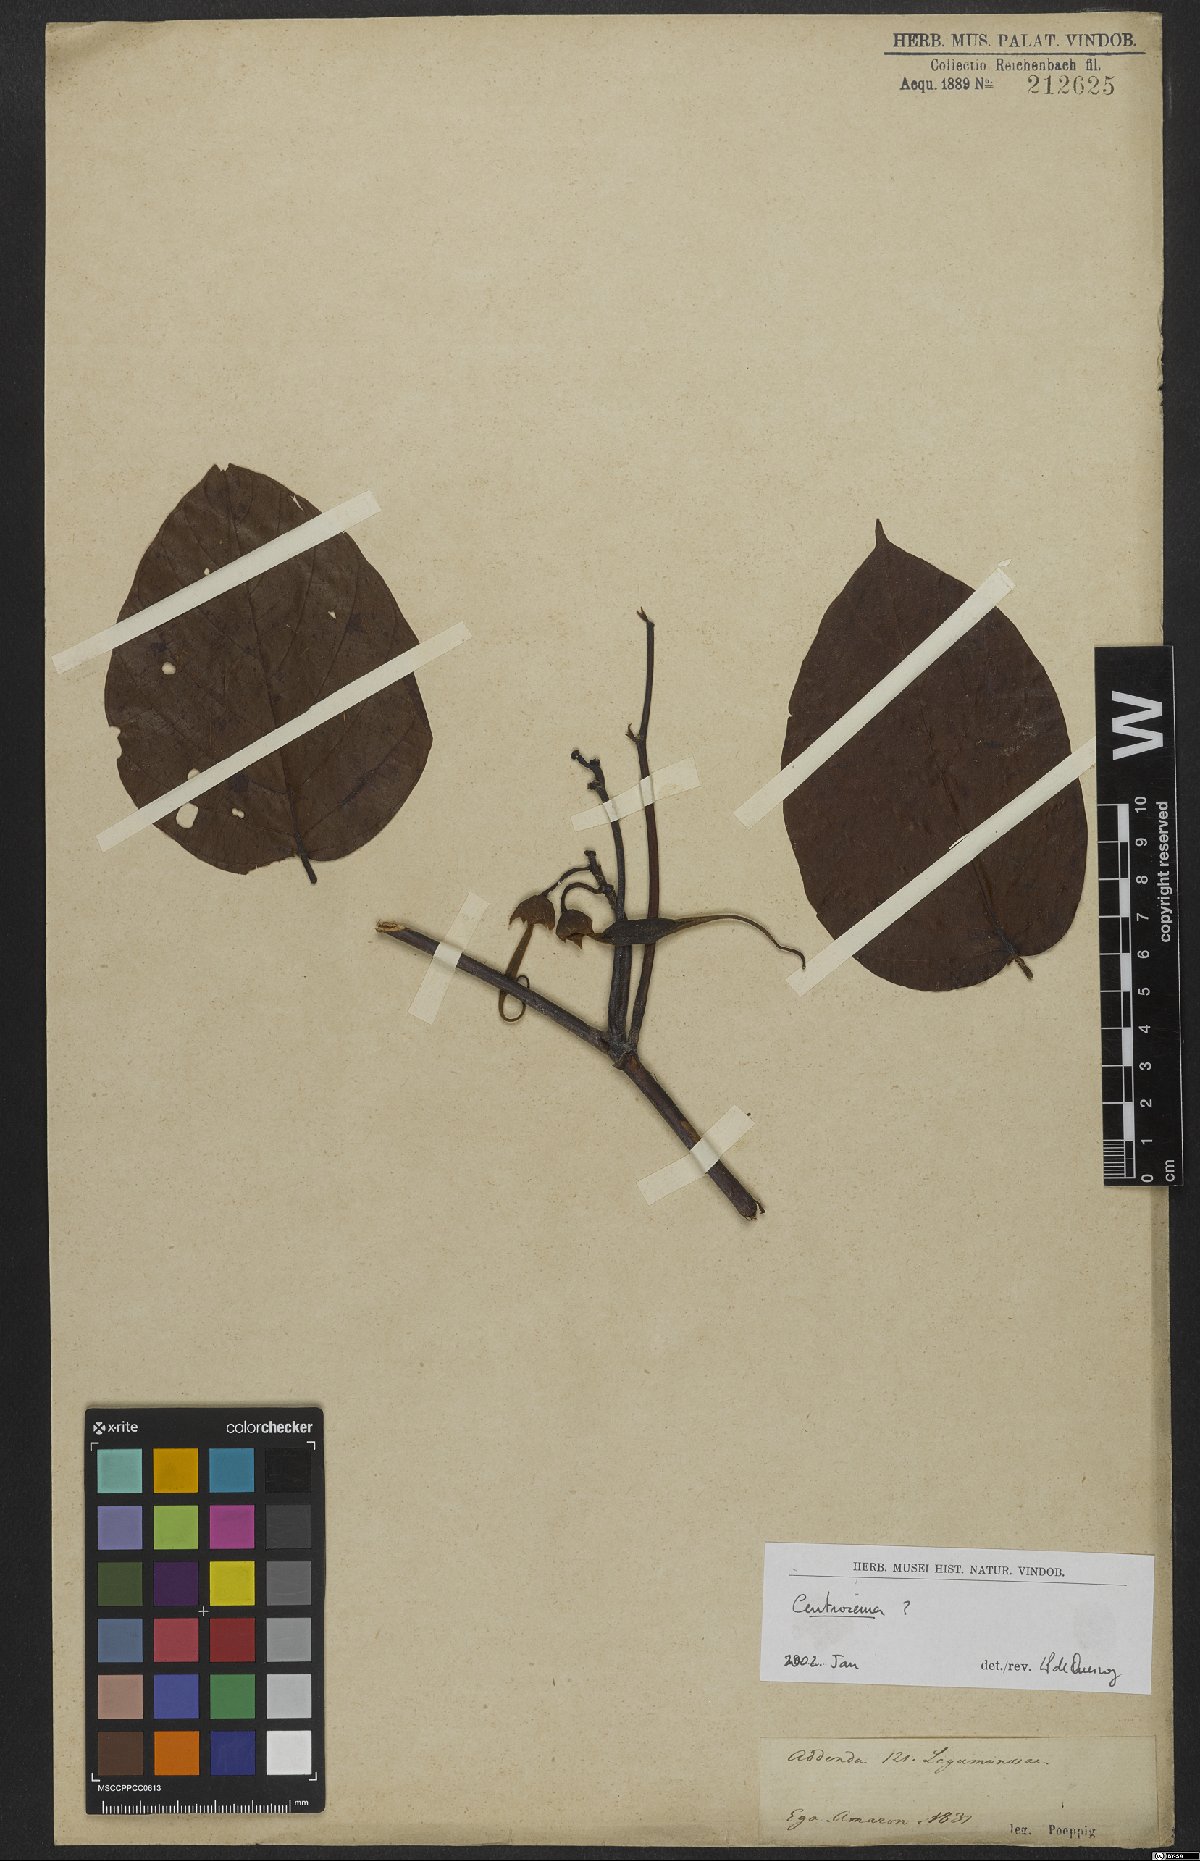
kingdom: Plantae
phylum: Tracheophyta
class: Magnoliopsida
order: Fabales
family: Fabaceae
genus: Centrosema
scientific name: Centrosema
